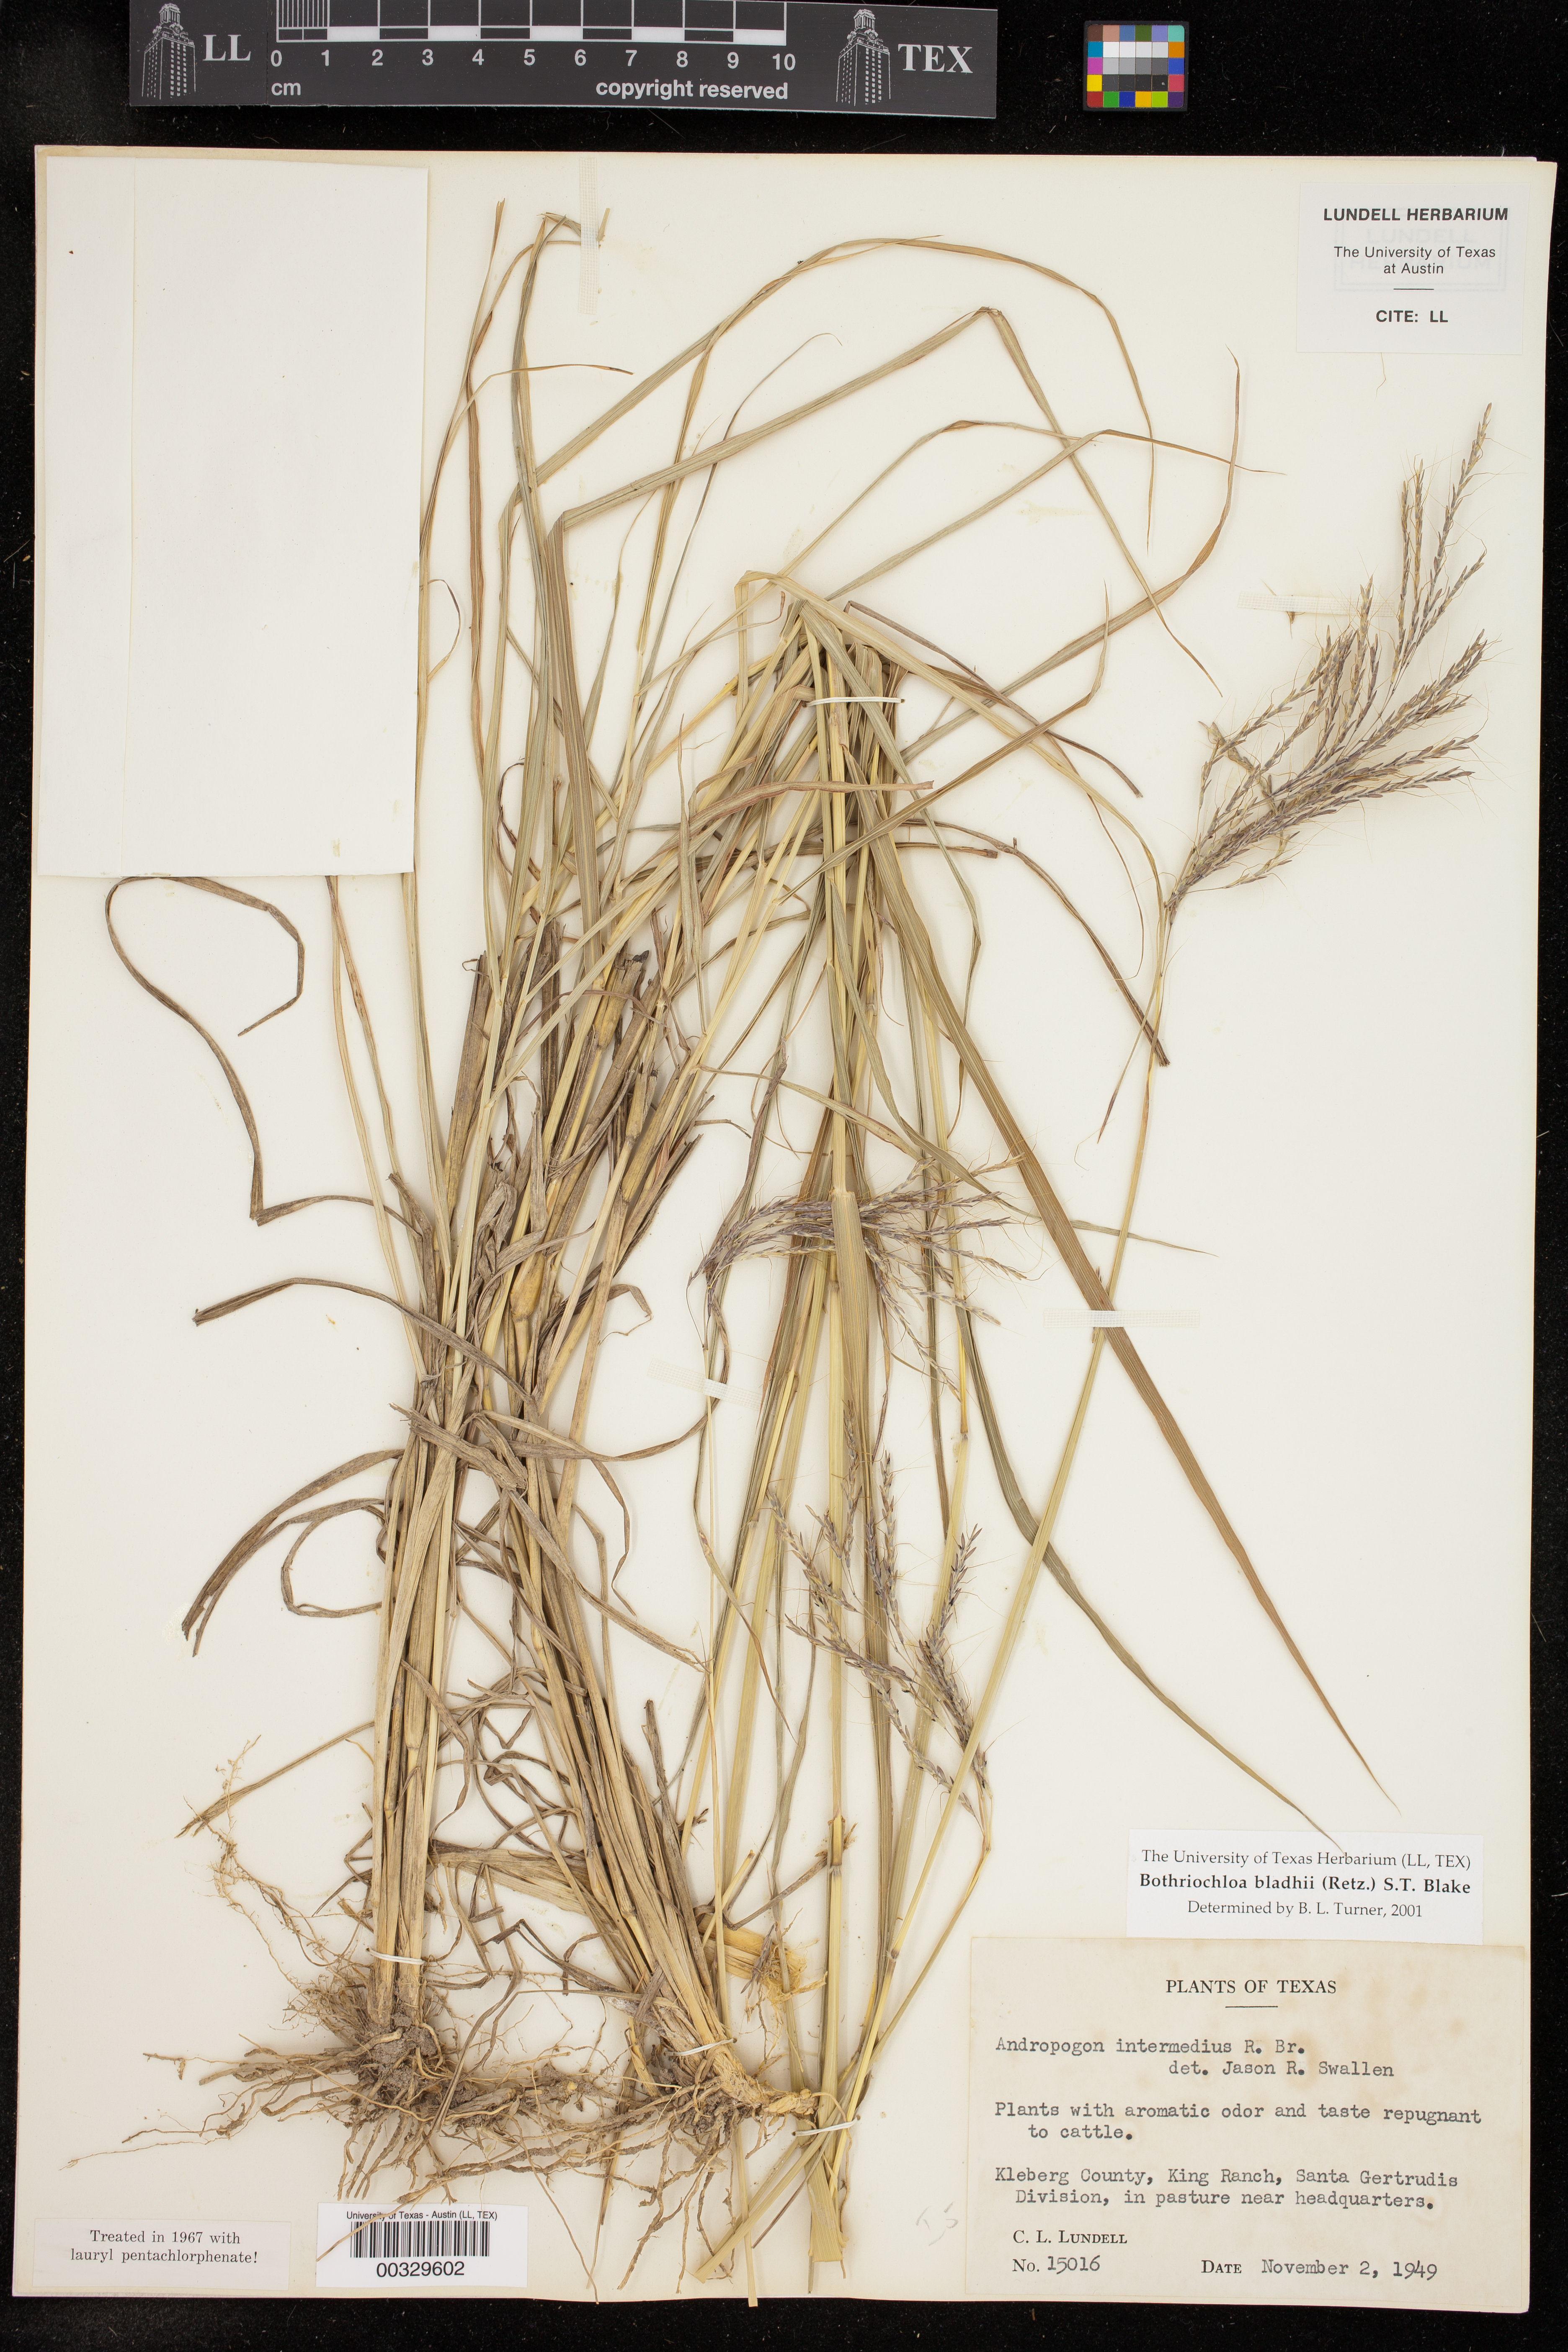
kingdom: Plantae
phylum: Tracheophyta
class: Liliopsida
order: Poales
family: Poaceae
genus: Bothriochloa
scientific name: Bothriochloa bladhii
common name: Caucasian bluestem
